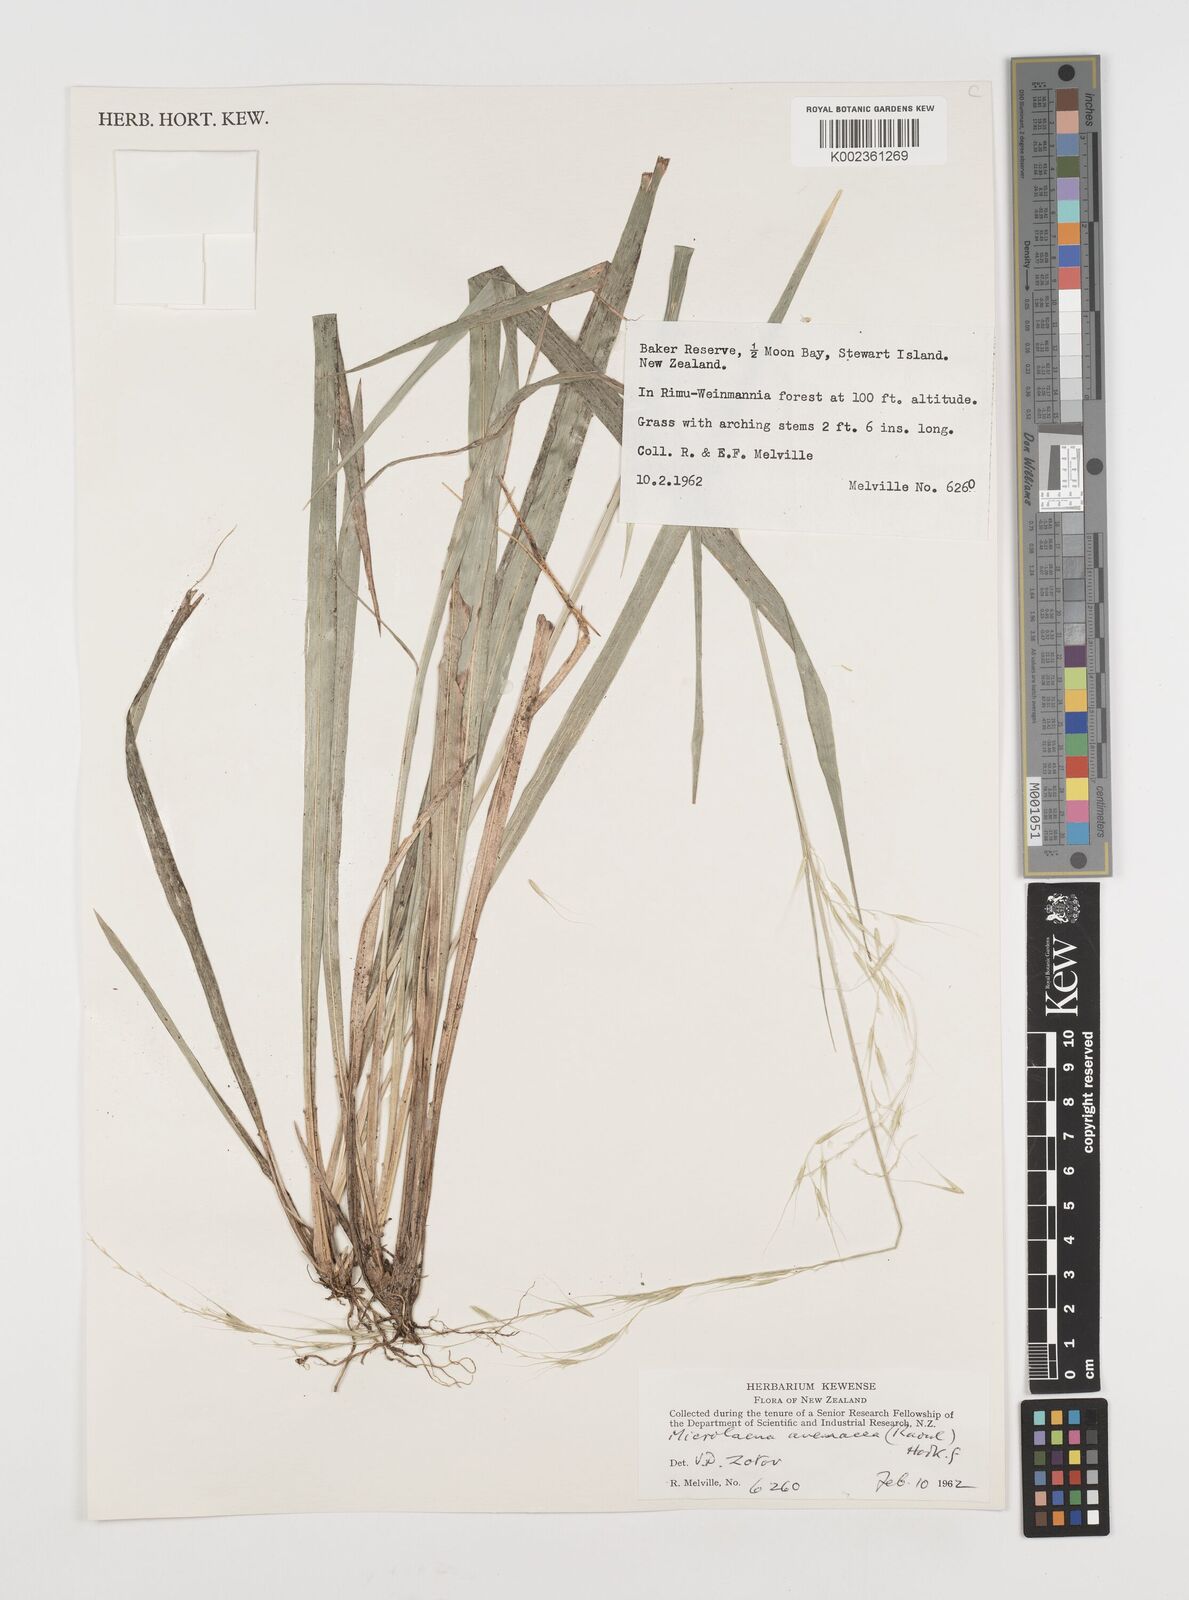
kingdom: Plantae
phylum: Tracheophyta
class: Liliopsida
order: Poales
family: Poaceae
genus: Ehrharta
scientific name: Ehrharta diplax
